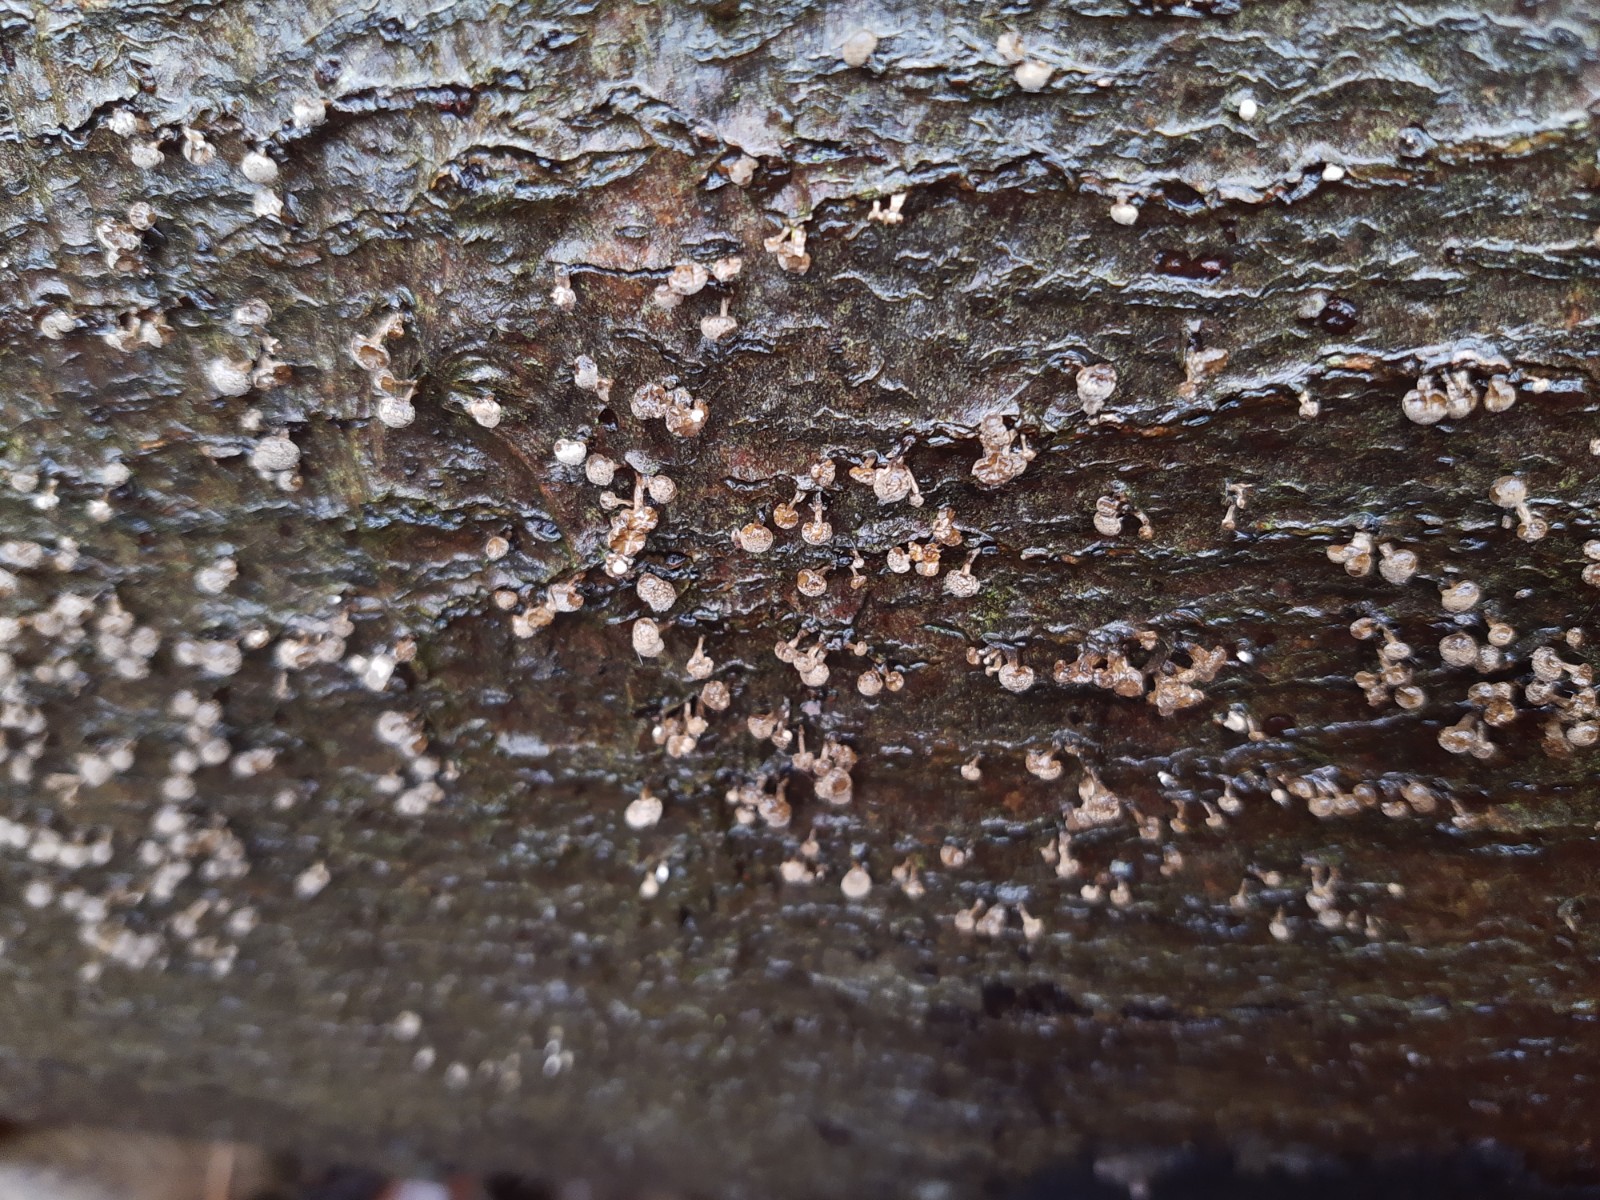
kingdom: Fungi
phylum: Basidiomycota
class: Atractiellomycetes
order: Atractiellales
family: Phleogenaceae
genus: Phleogena
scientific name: Phleogena faginea
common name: pudderkølle
